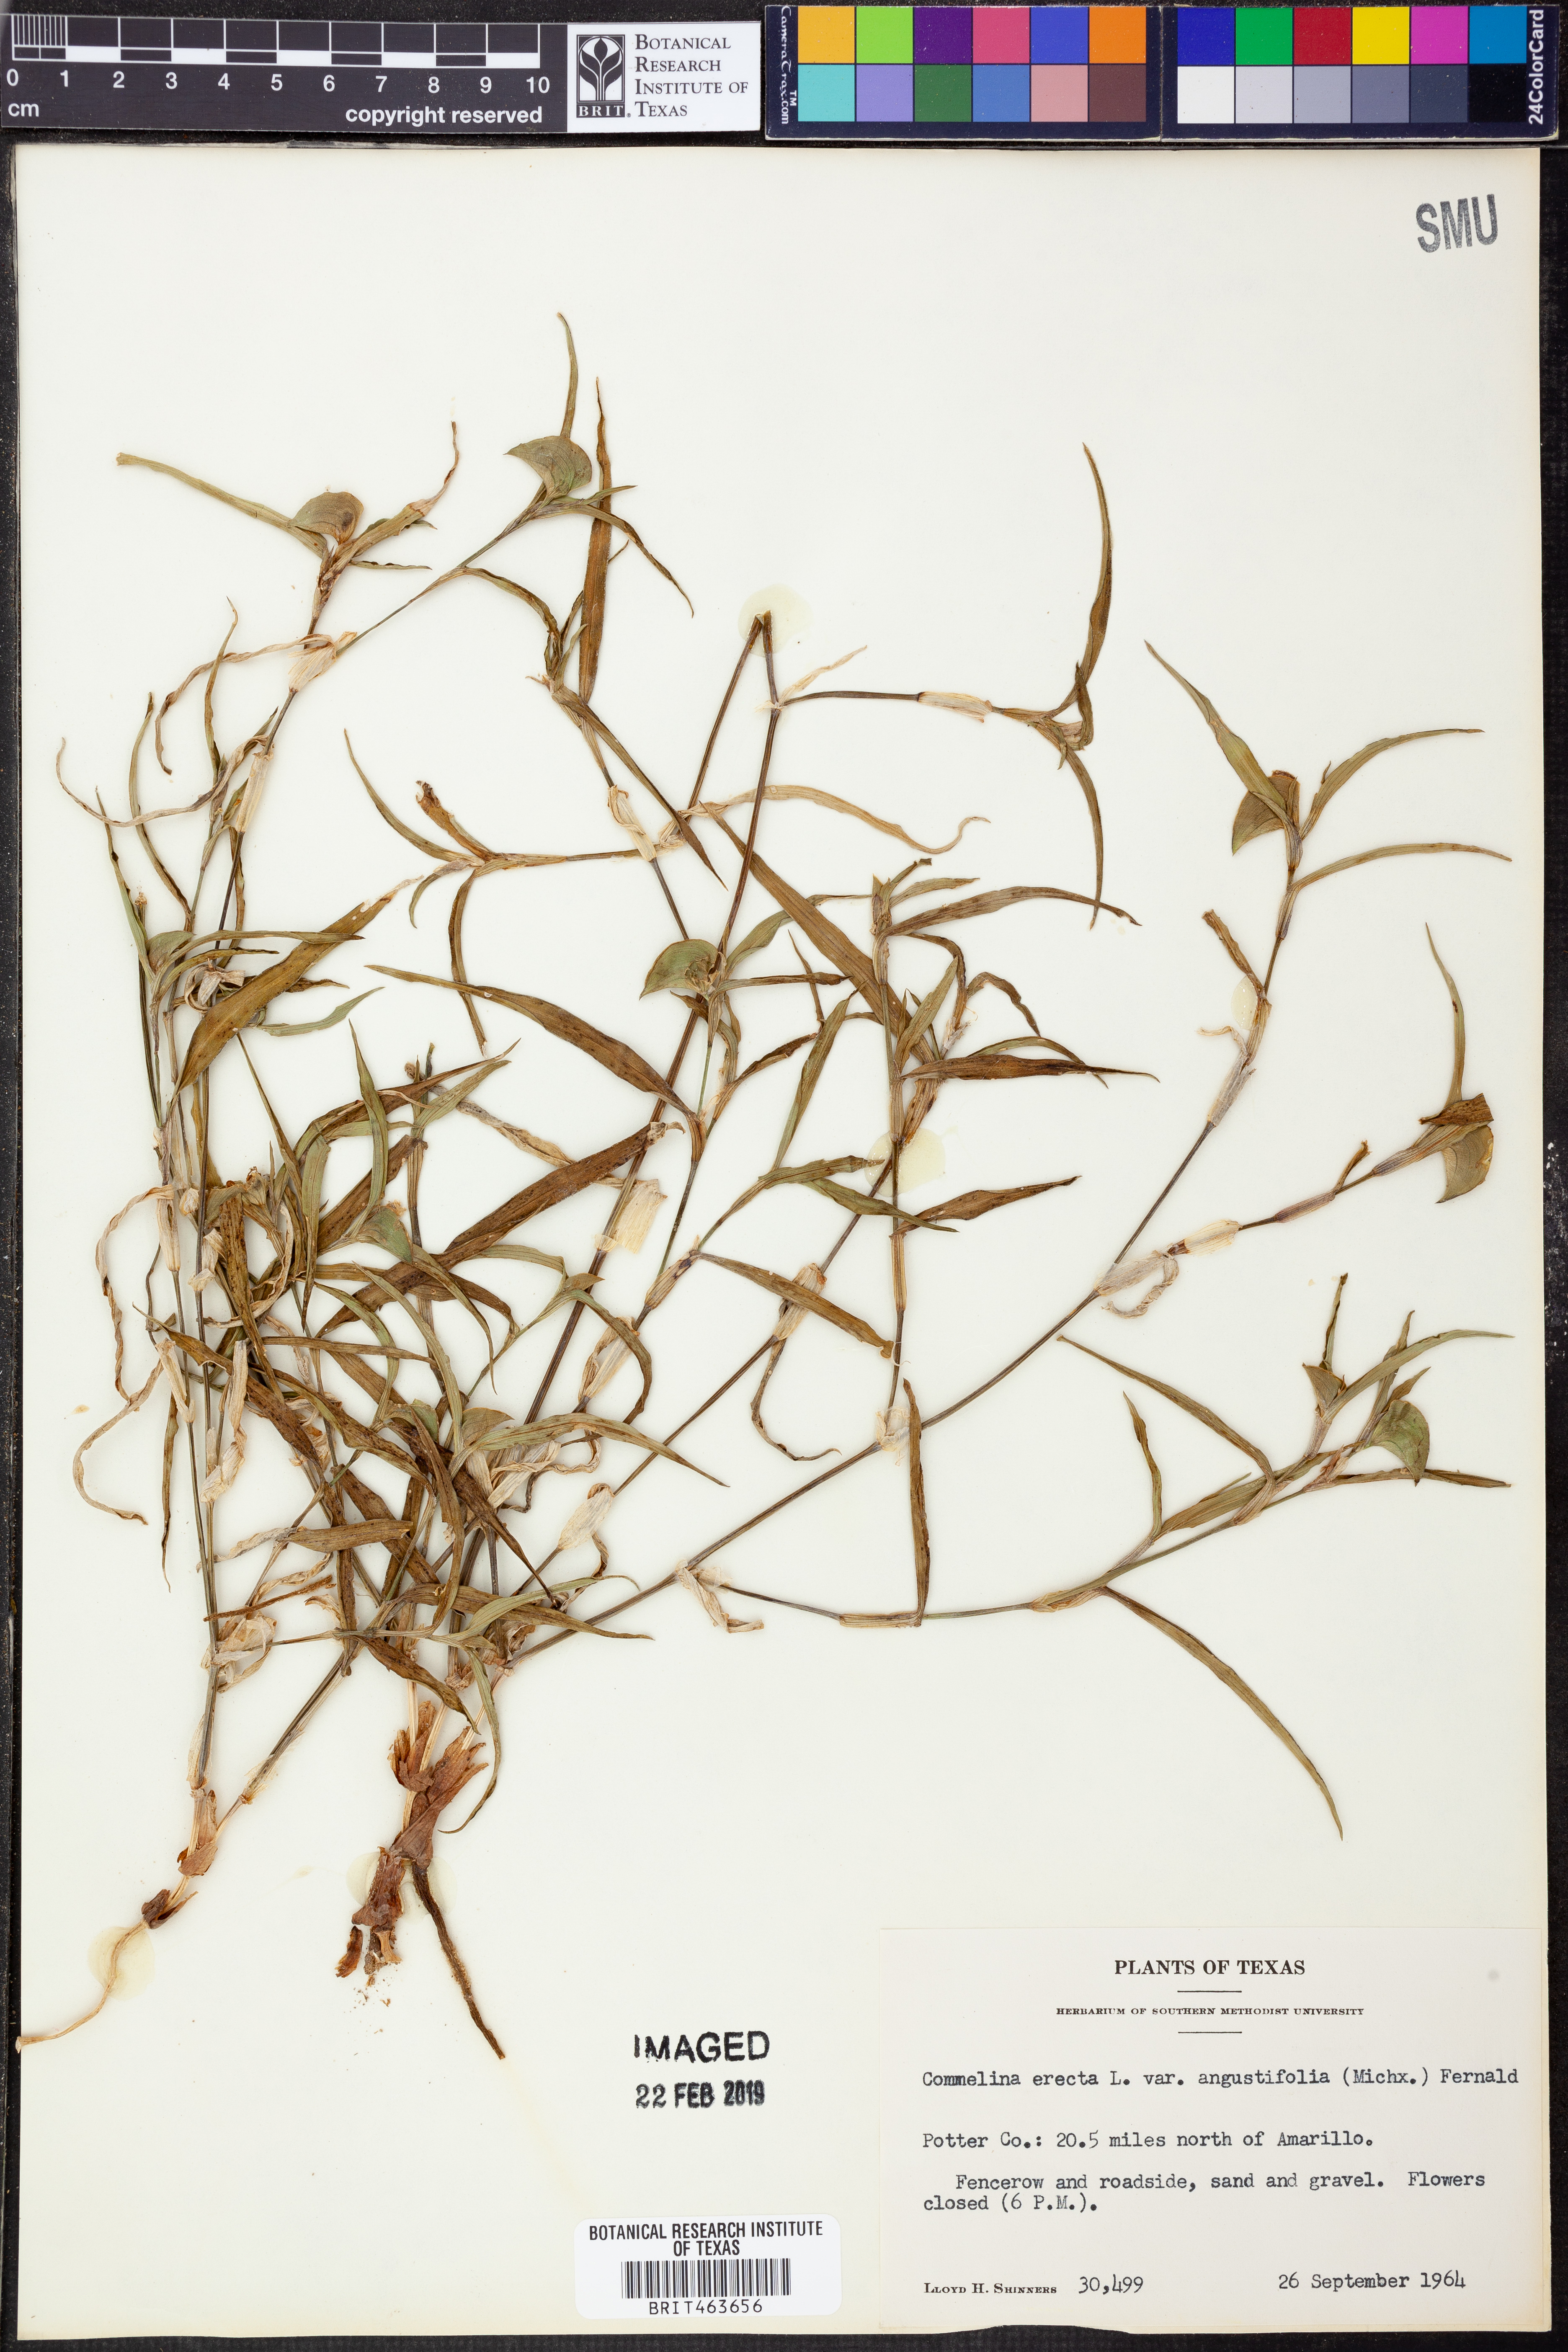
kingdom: Plantae
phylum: Tracheophyta
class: Liliopsida
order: Commelinales
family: Commelinaceae
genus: Commelina
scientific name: Commelina erecta
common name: Blousel blommetjie
